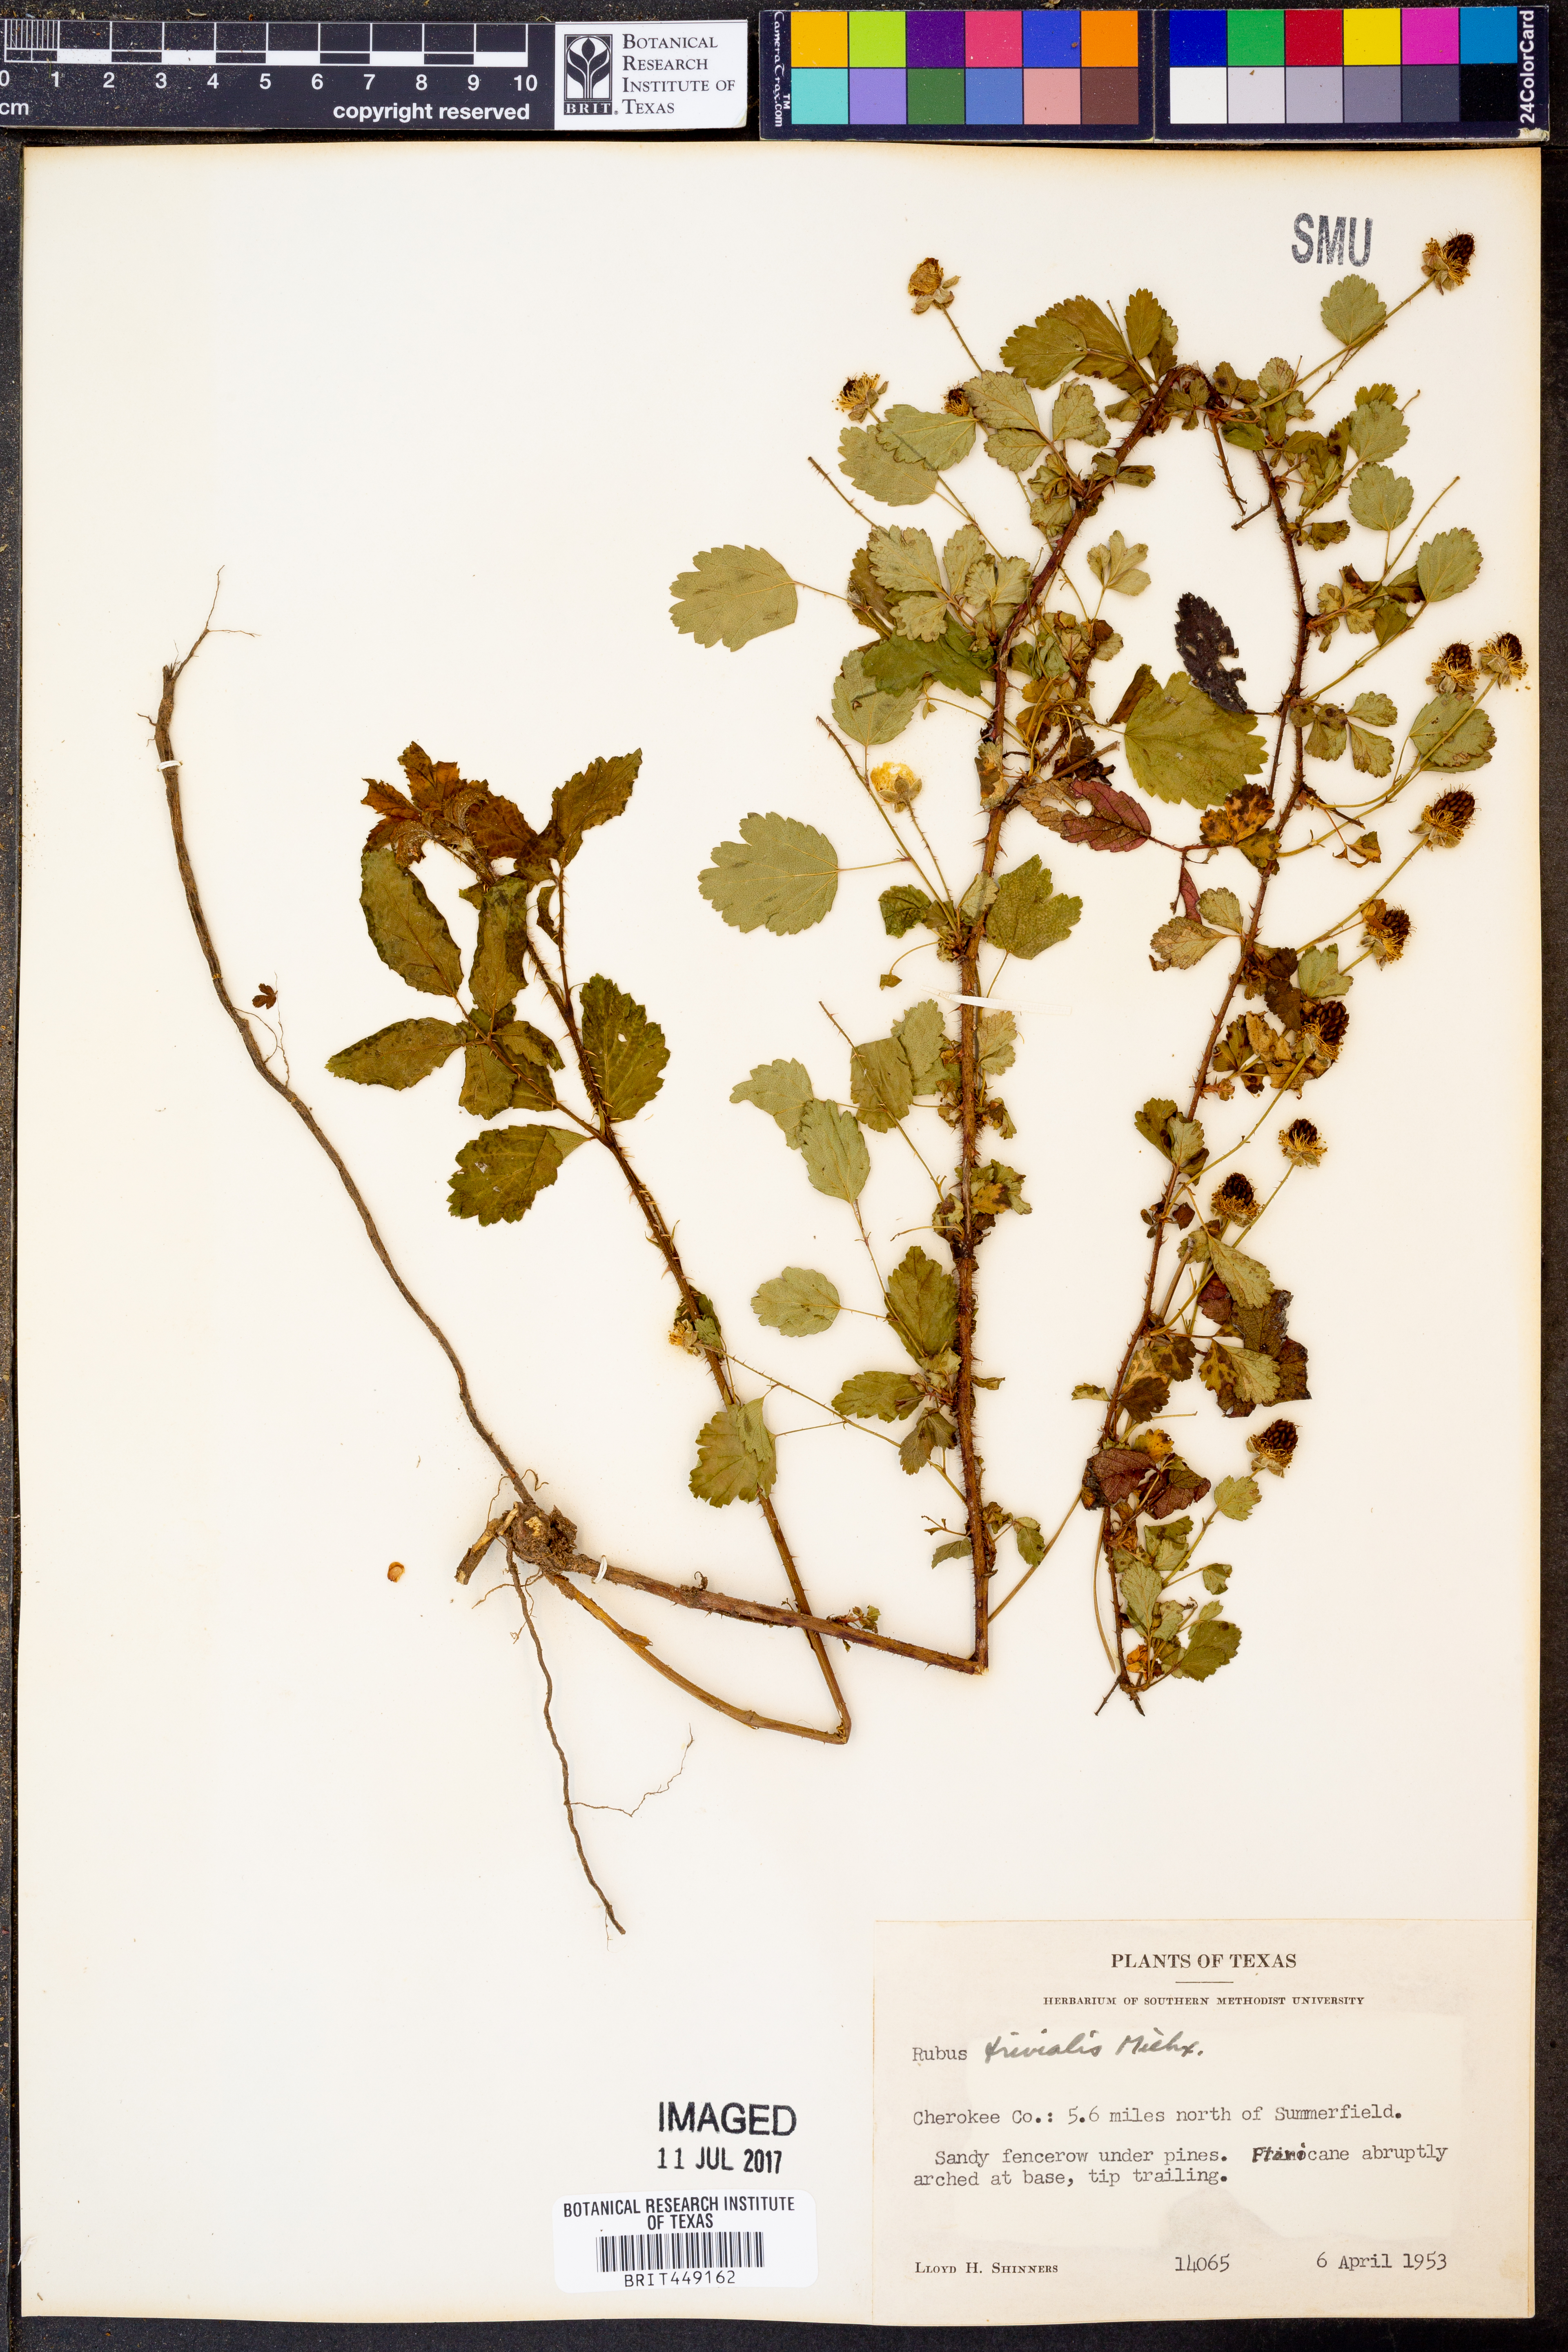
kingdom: Plantae
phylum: Tracheophyta
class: Magnoliopsida
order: Rosales
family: Rosaceae
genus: Rubus
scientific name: Rubus trivialis
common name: Southern dewberry
